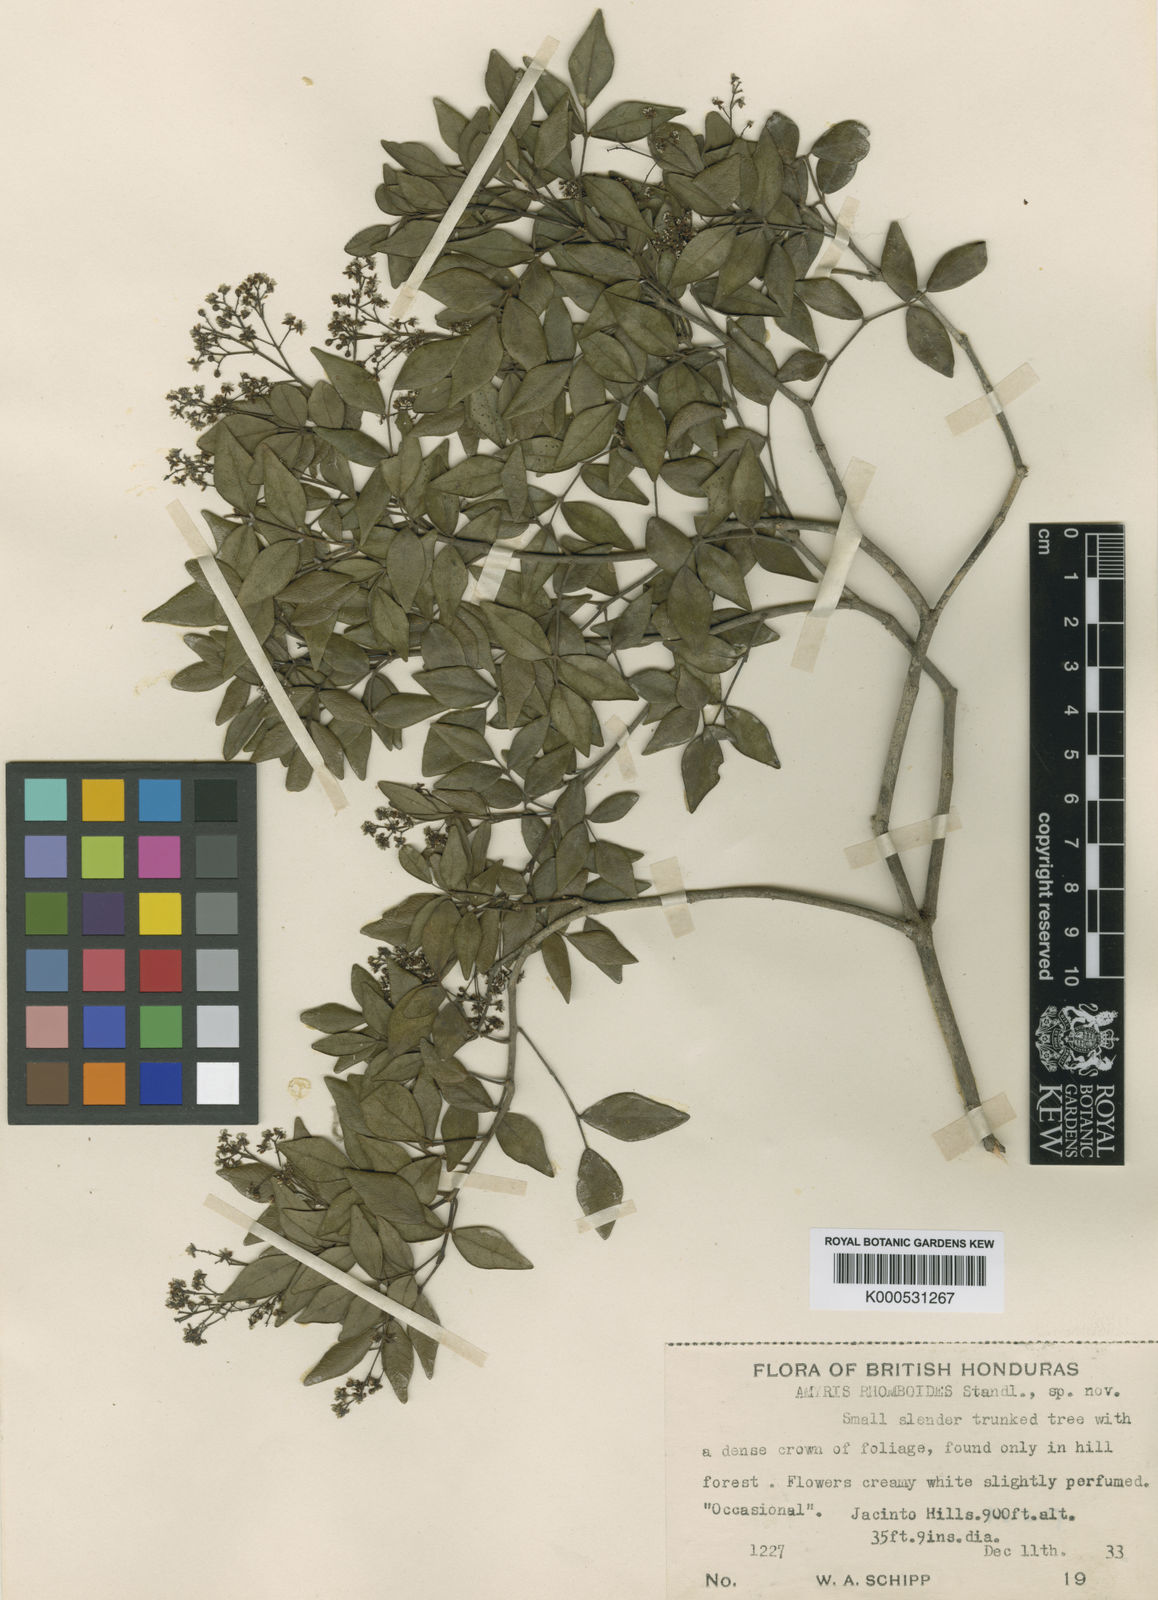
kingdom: Plantae
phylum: Tracheophyta
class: Magnoliopsida
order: Sapindales
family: Rutaceae
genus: Amyris
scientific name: Amyris rhomboidea
